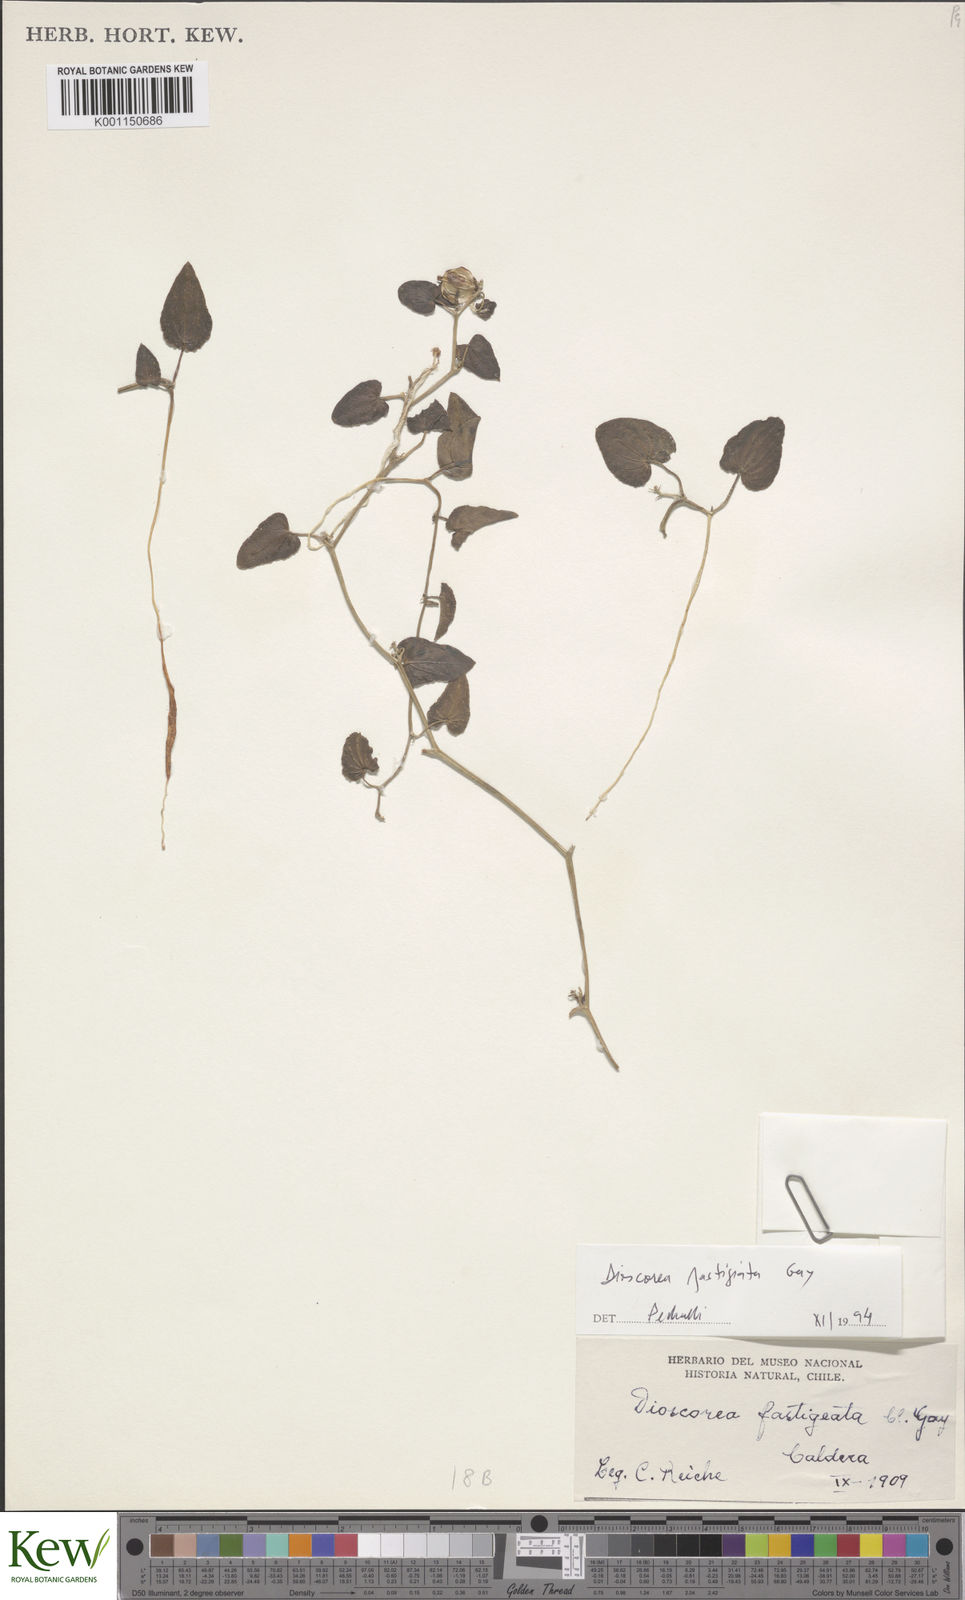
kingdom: Plantae
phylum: Tracheophyta
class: Liliopsida
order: Dioscoreales
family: Dioscoreaceae
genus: Dioscorea
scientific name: Dioscorea fastigiata
